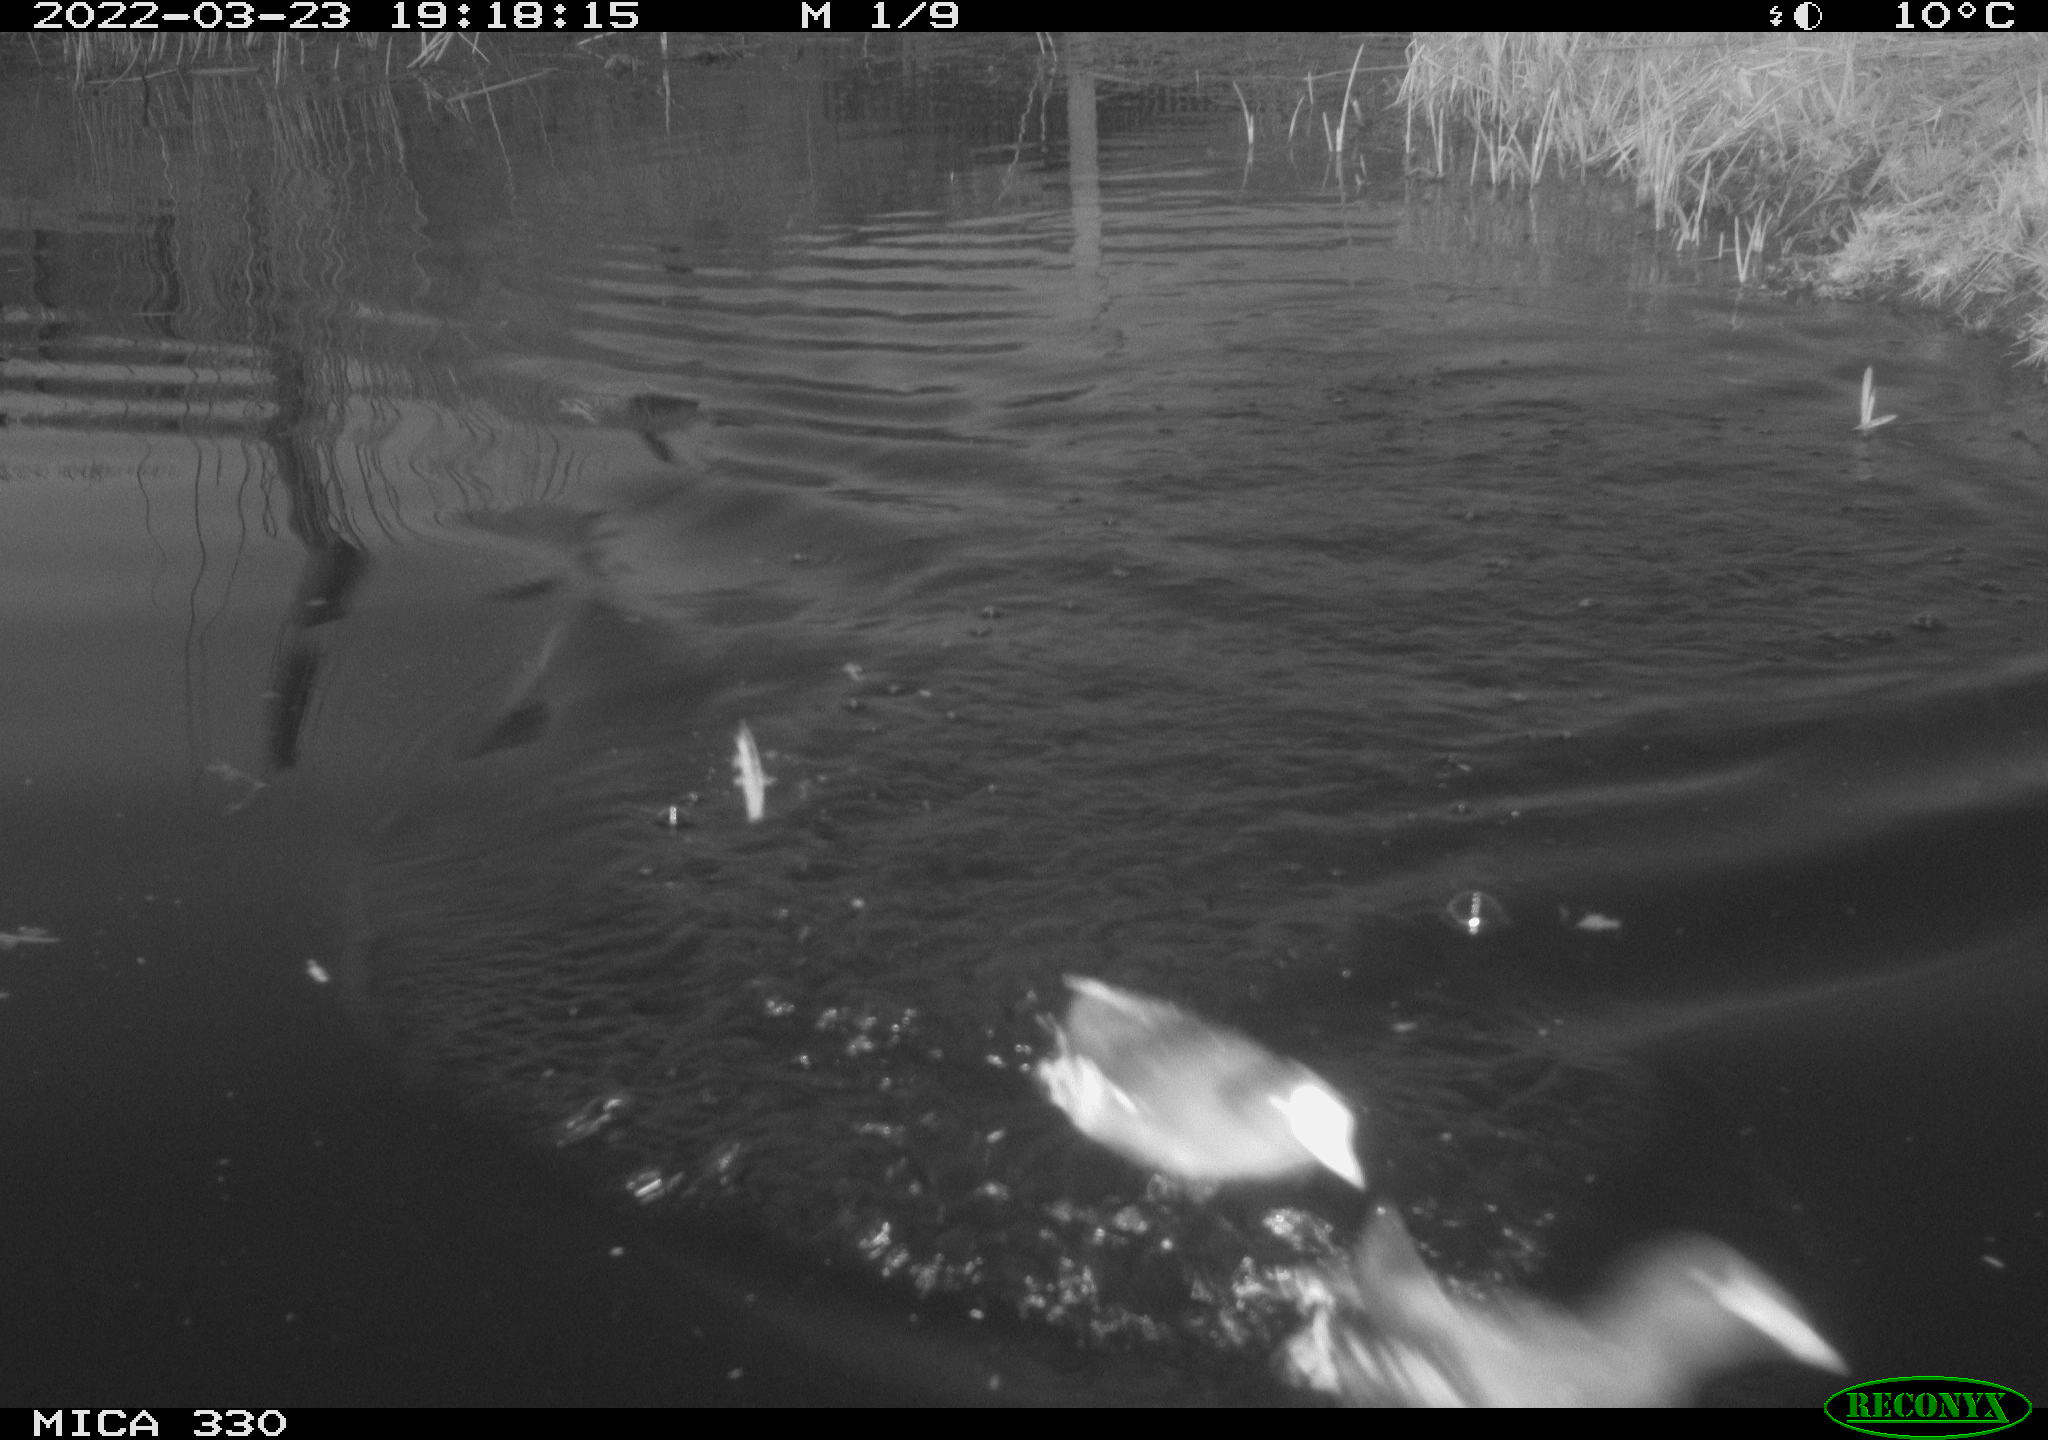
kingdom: Animalia
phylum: Chordata
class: Aves
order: Gruiformes
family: Rallidae
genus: Gallinula
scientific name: Gallinula chloropus
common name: Common moorhen
